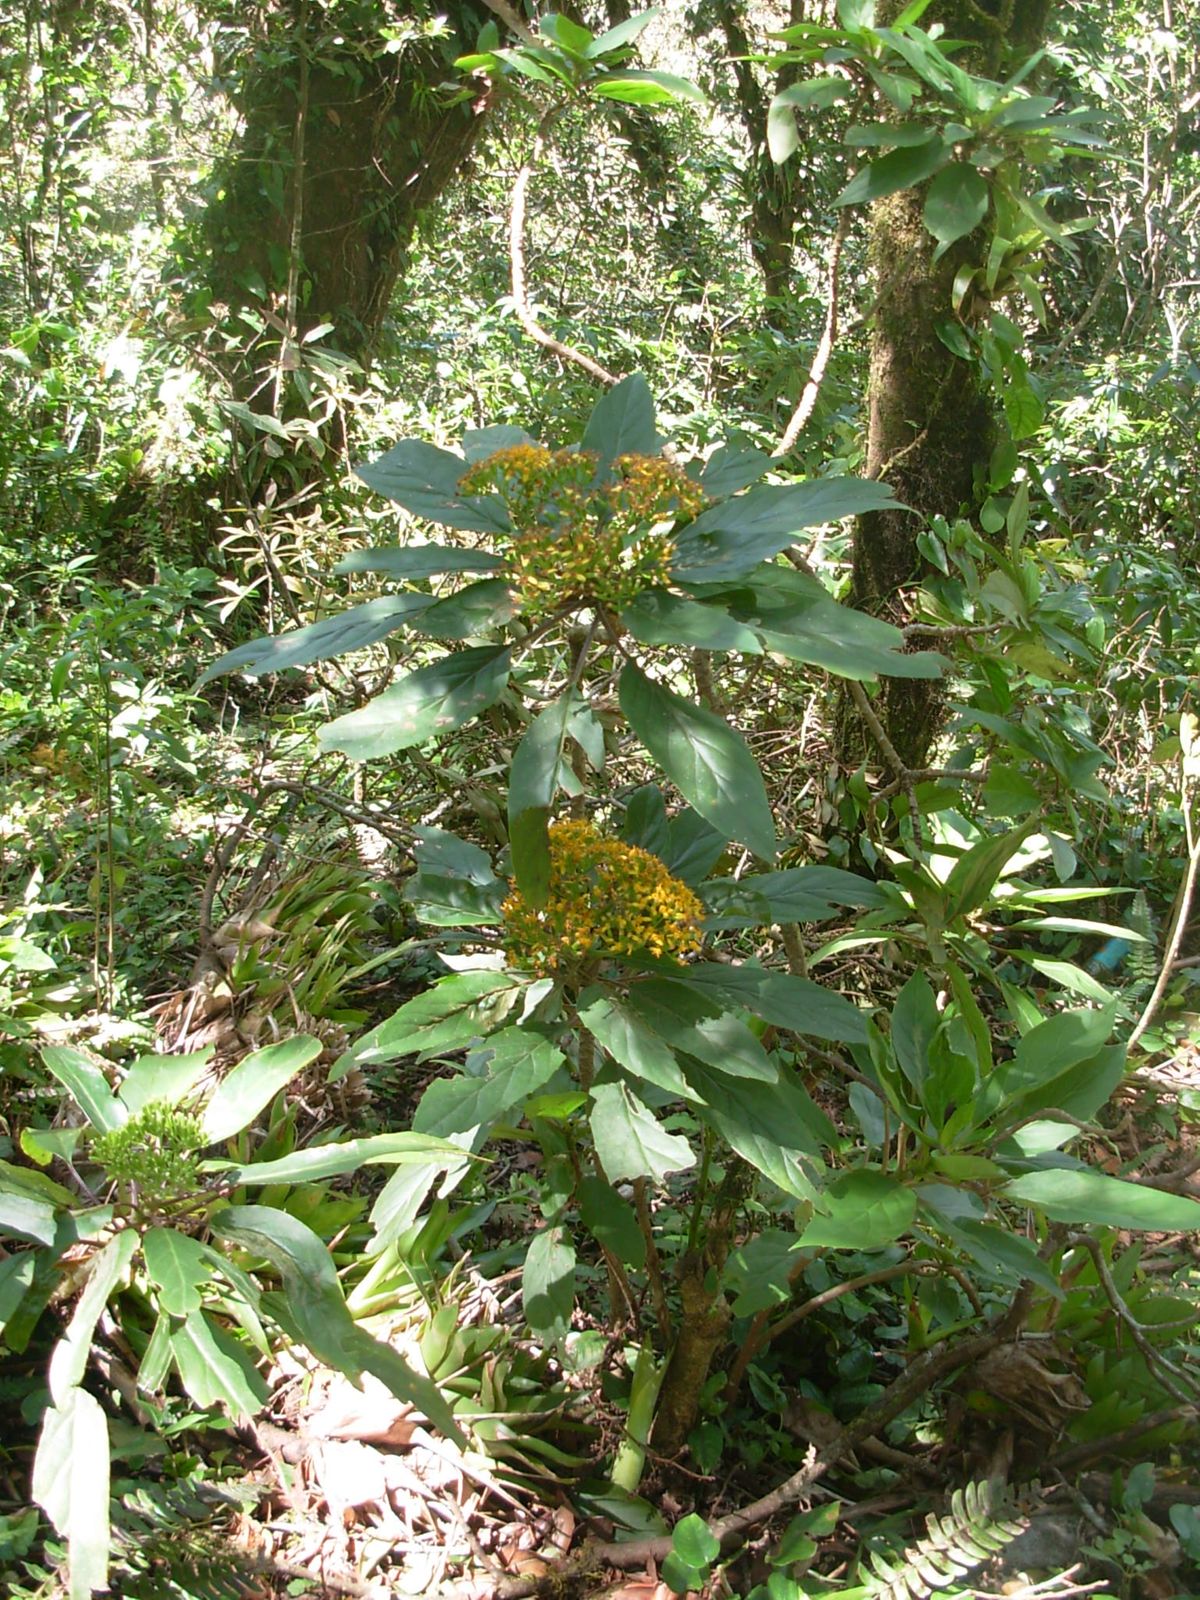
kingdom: Plantae
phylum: Tracheophyta
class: Magnoliopsida
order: Asterales
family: Asteraceae
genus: Roldana
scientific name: Roldana schaffneri
